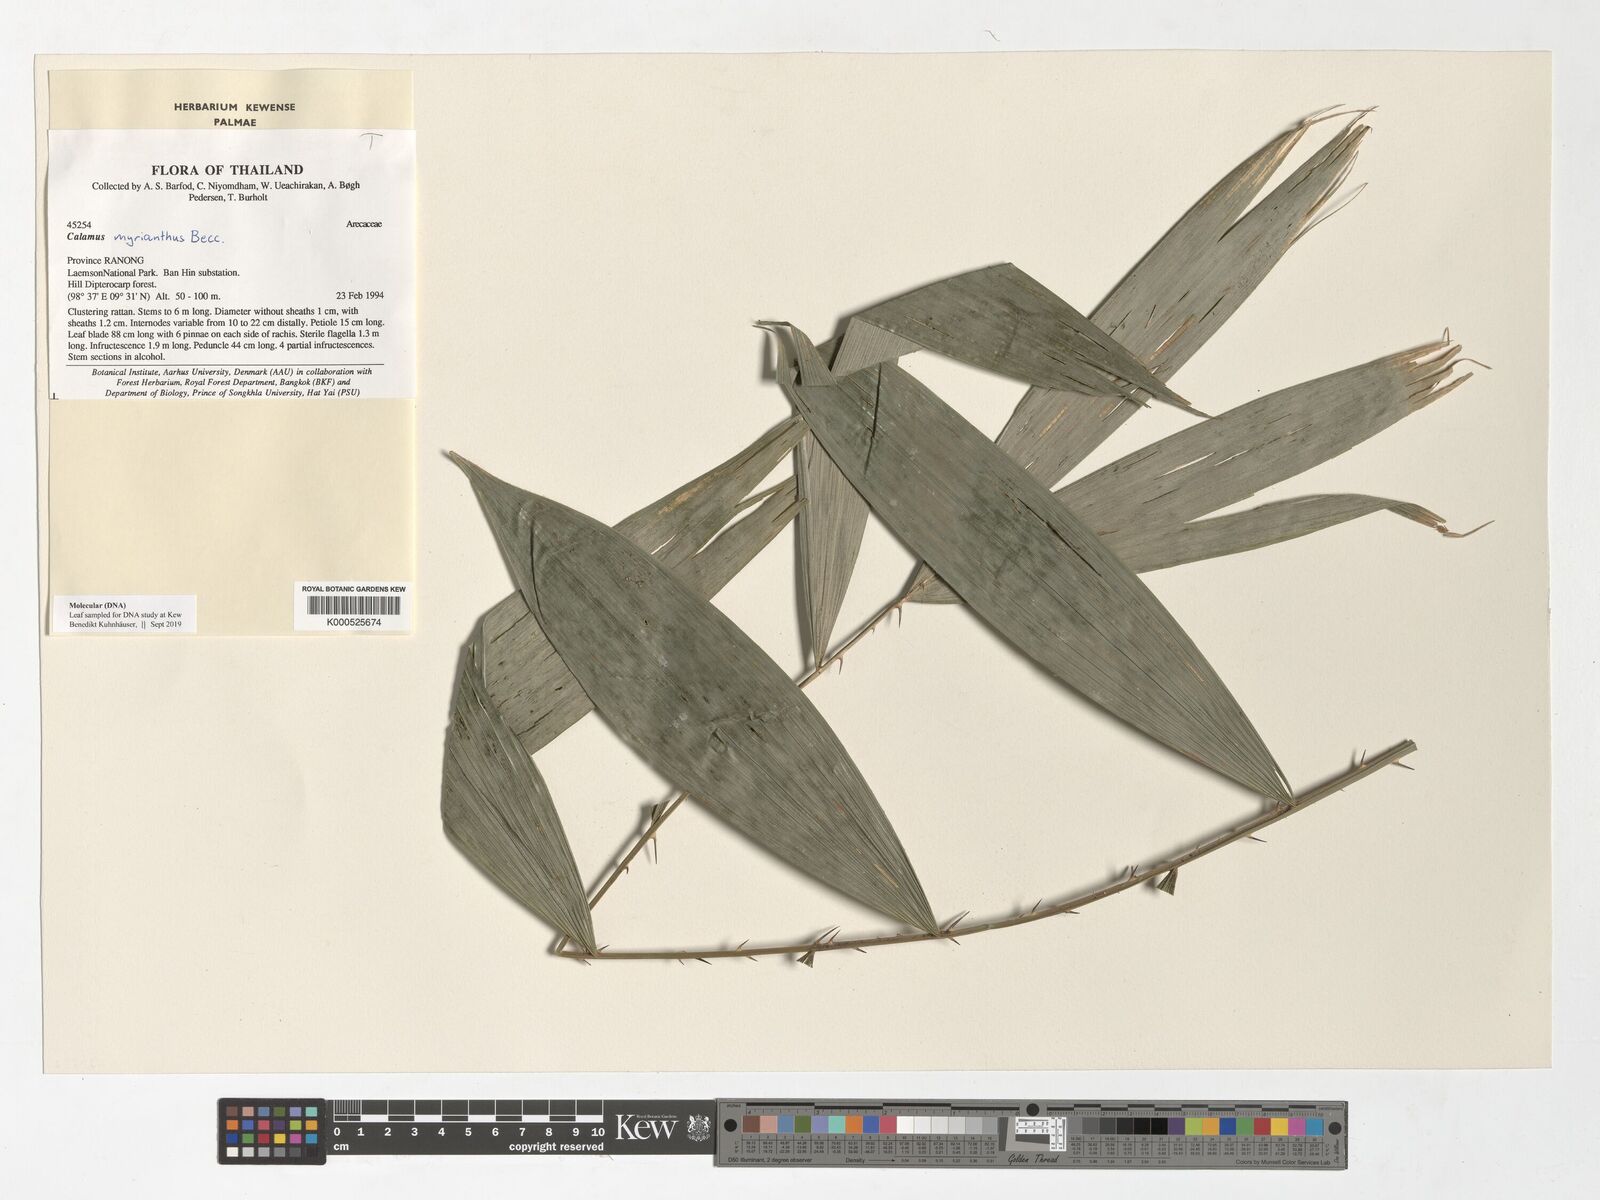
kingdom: Plantae
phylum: Tracheophyta
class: Liliopsida
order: Arecales
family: Arecaceae
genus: Calamus
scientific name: Calamus myrianthus
